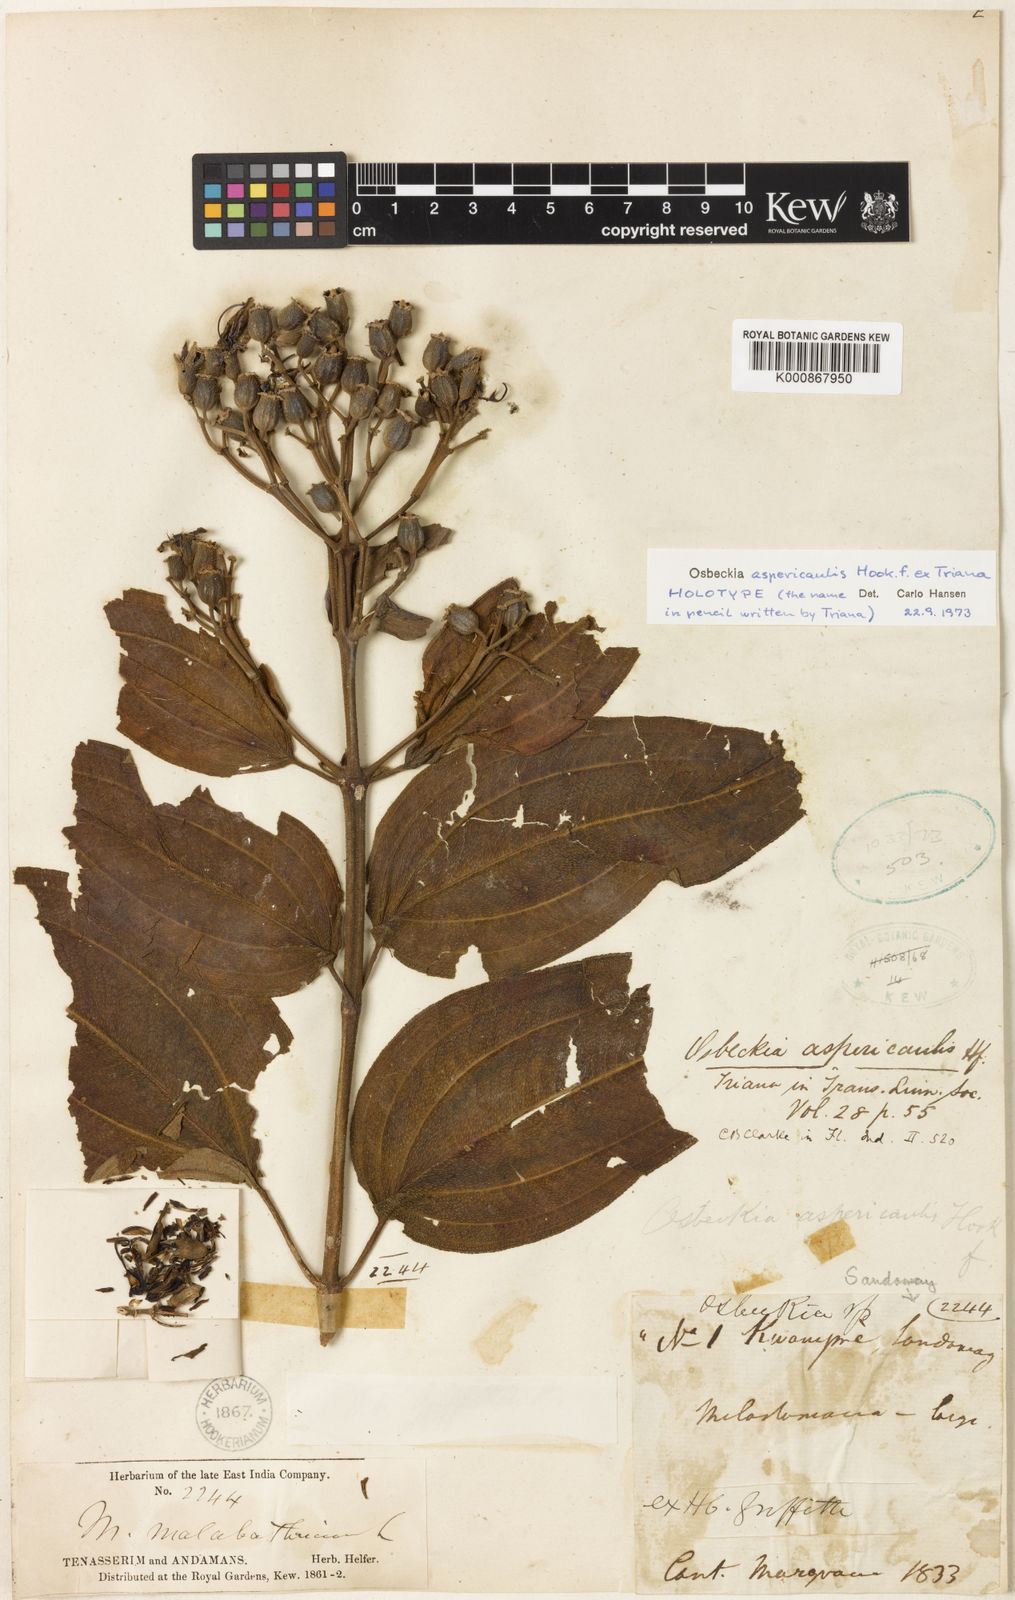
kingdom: Plantae
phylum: Tracheophyta
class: Magnoliopsida
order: Myrtales
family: Melastomataceae
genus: Osbeckia
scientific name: Osbeckia aspericaulis
